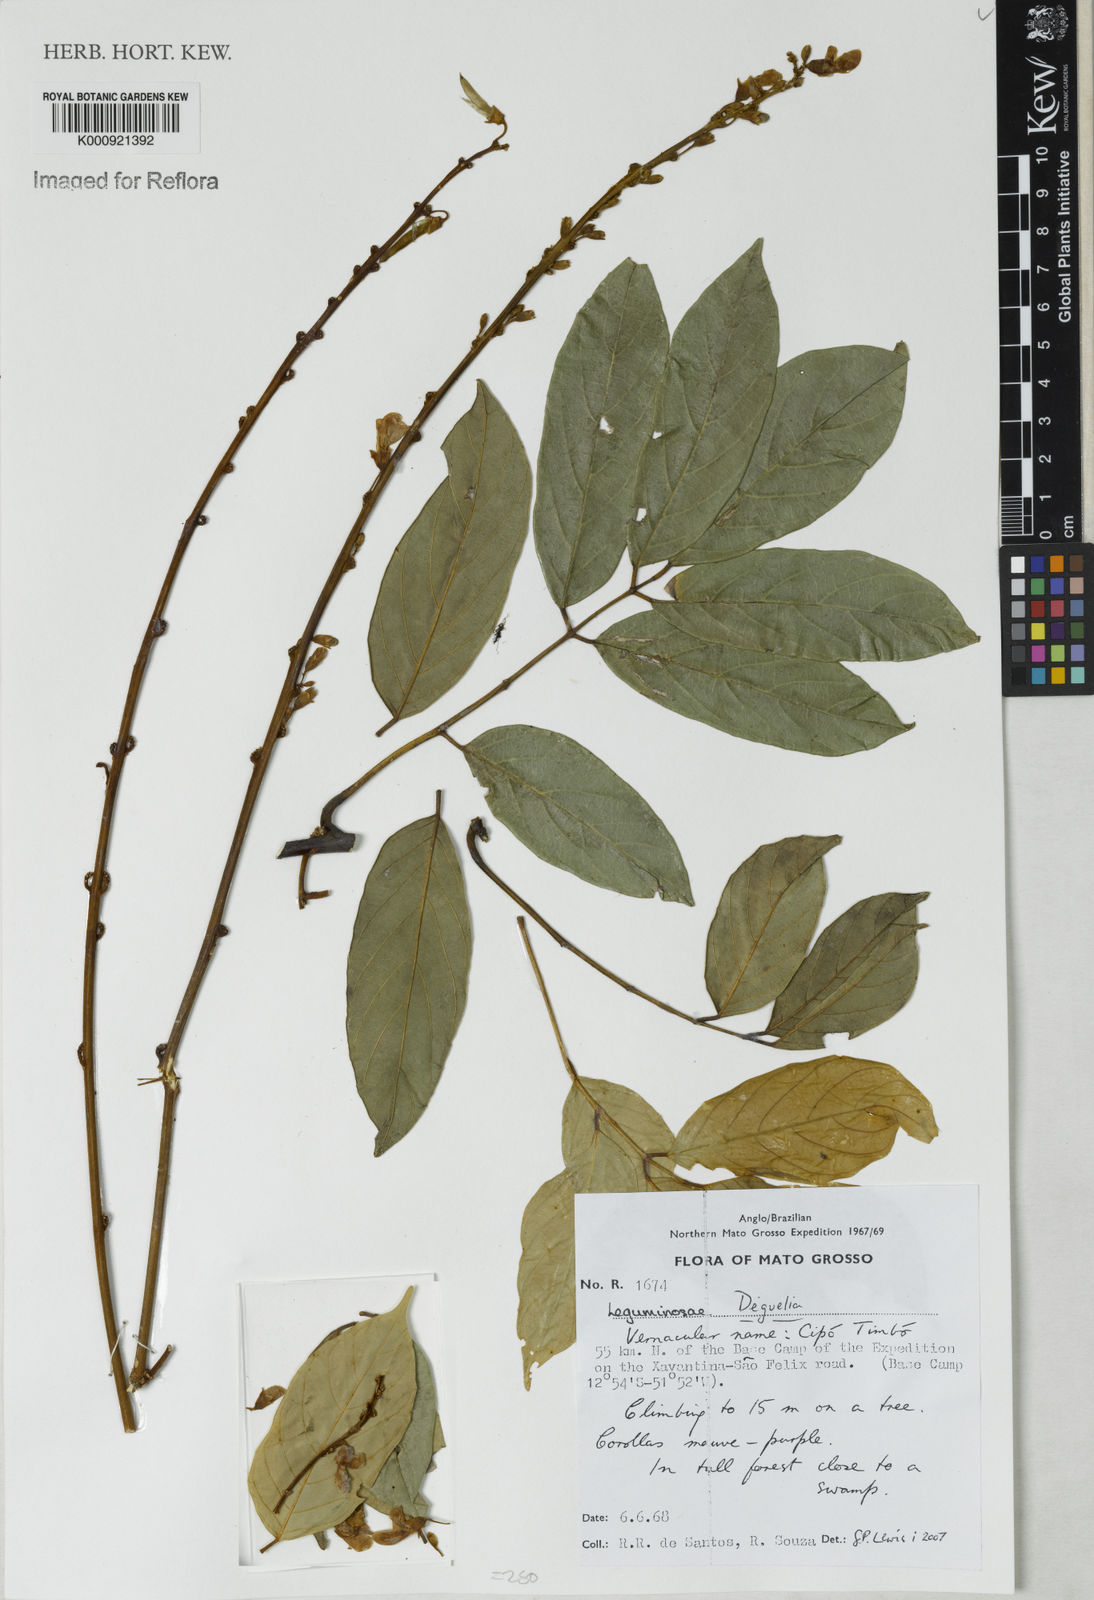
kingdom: Plantae
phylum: Tracheophyta
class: Magnoliopsida
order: Fabales
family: Fabaceae
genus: Deguelia
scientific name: Deguelia
